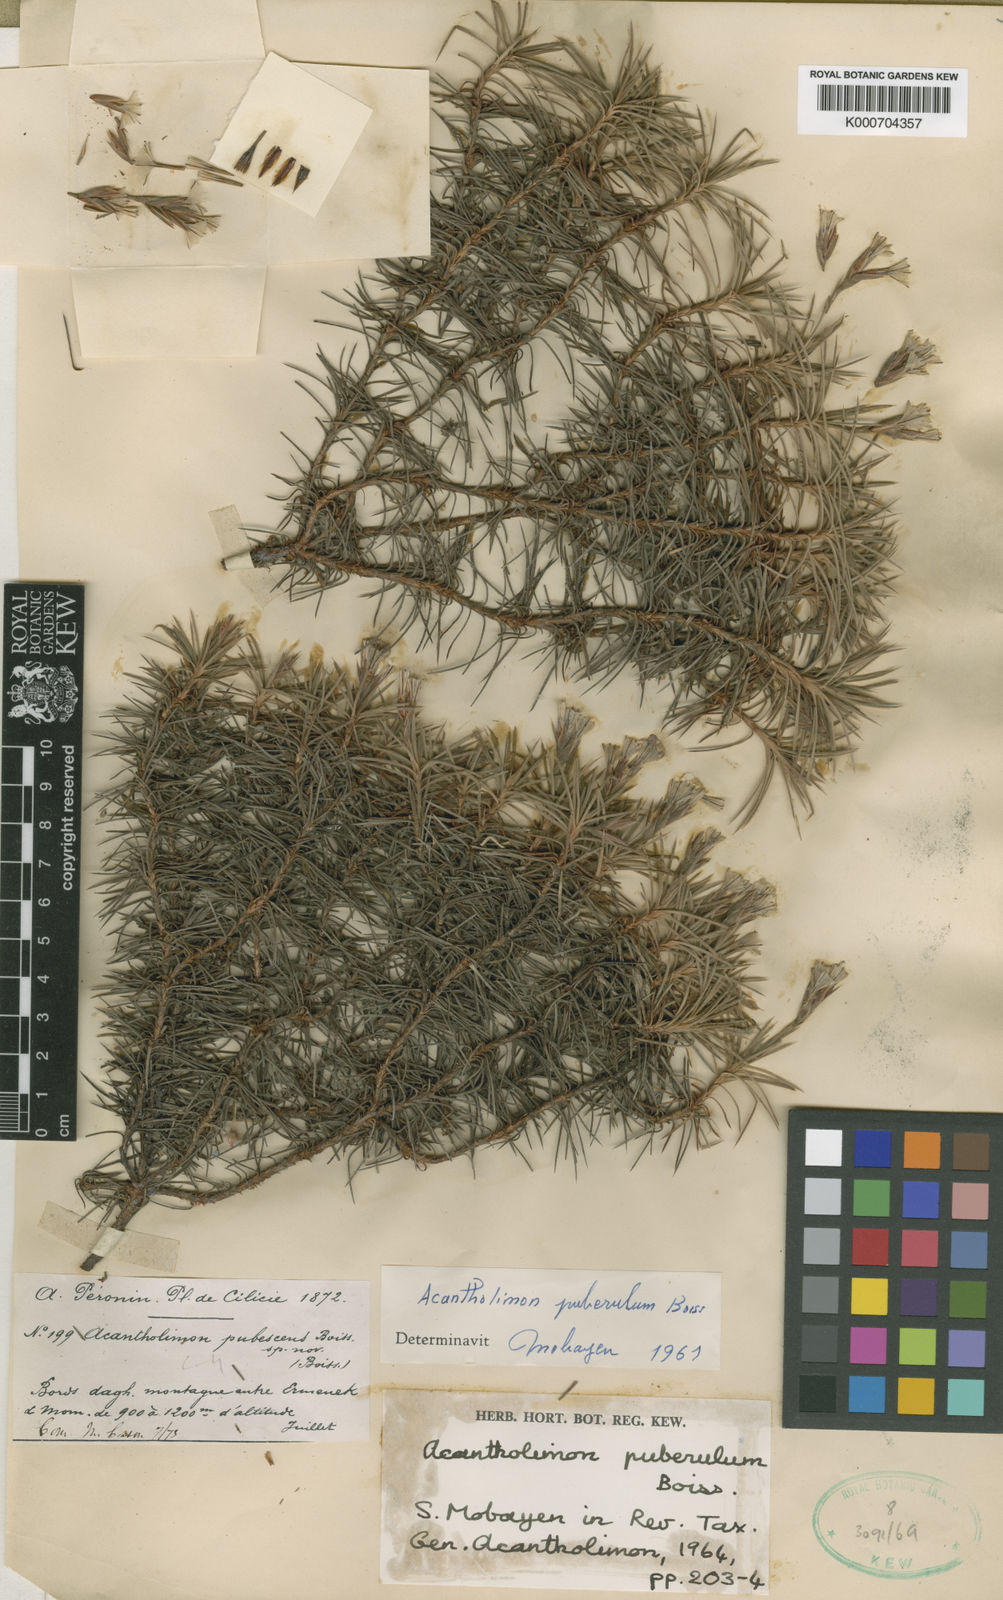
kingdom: Plantae
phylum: Tracheophyta
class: Magnoliopsida
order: Caryophyllales
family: Plumbaginaceae
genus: Acantholimon
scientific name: Acantholimon puberulum
